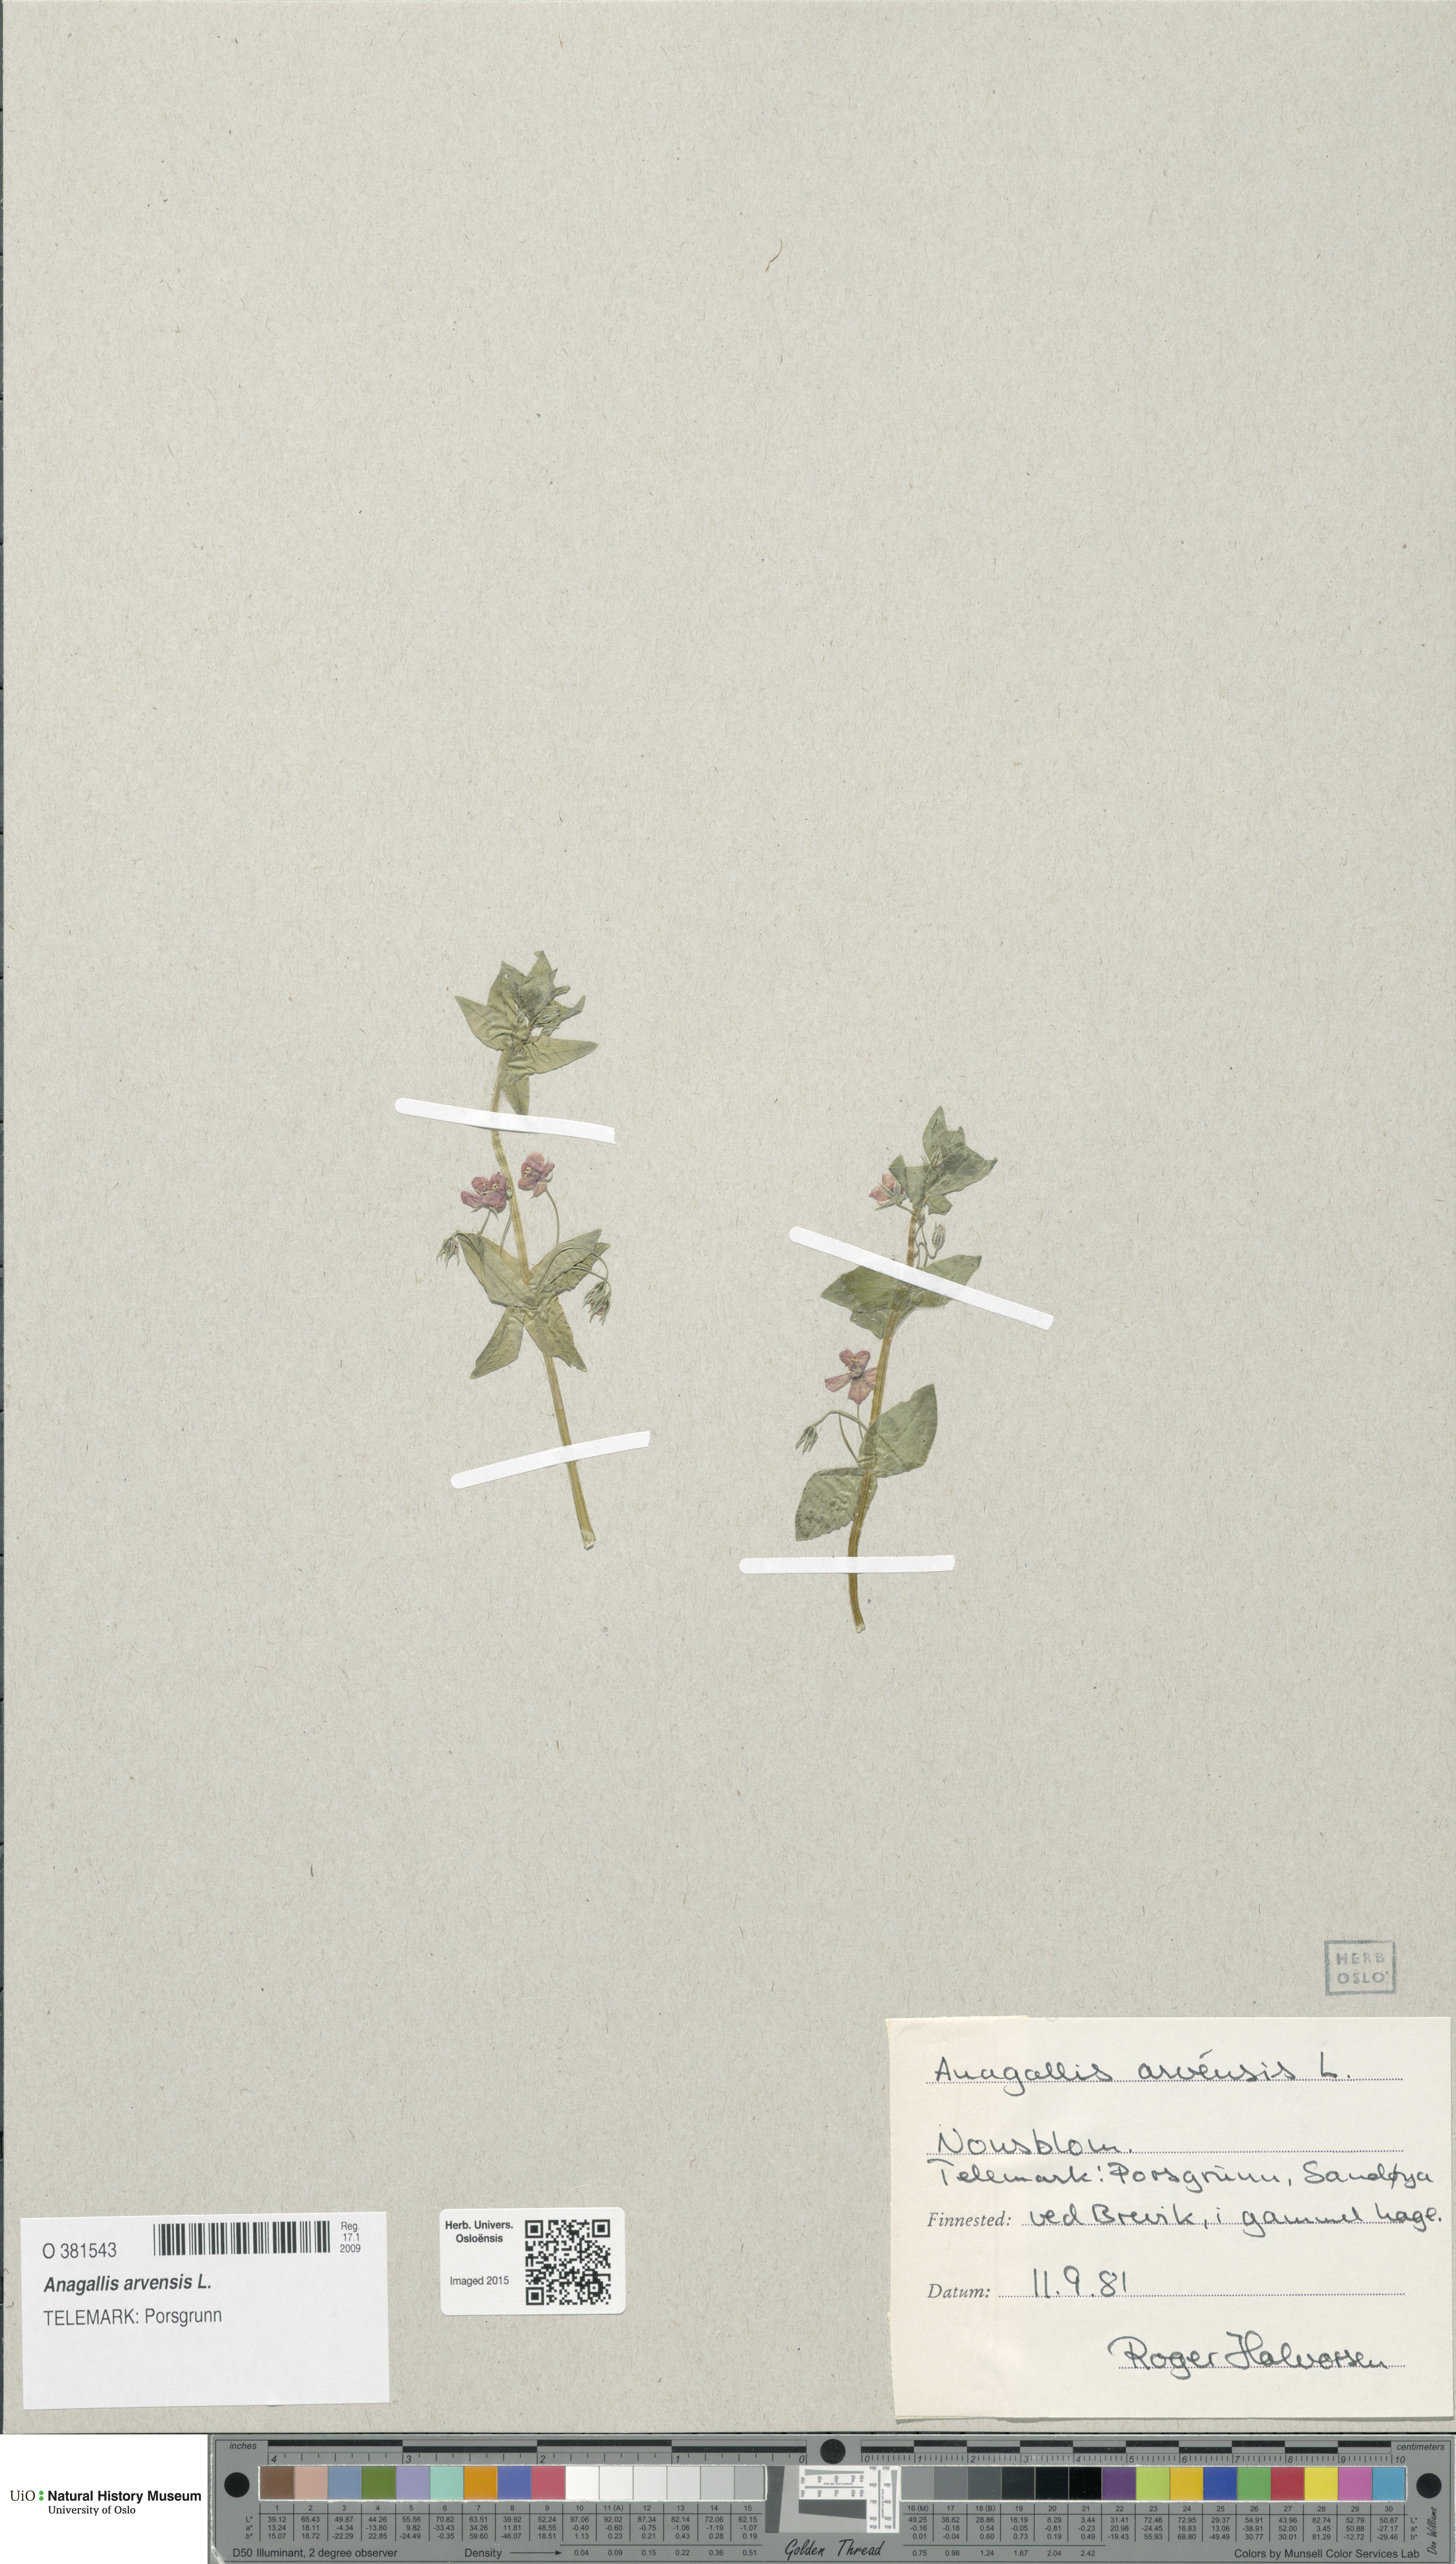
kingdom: Plantae
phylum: Tracheophyta
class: Magnoliopsida
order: Ericales
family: Primulaceae
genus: Lysimachia
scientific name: Lysimachia arvensis
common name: Scarlet pimpernel
